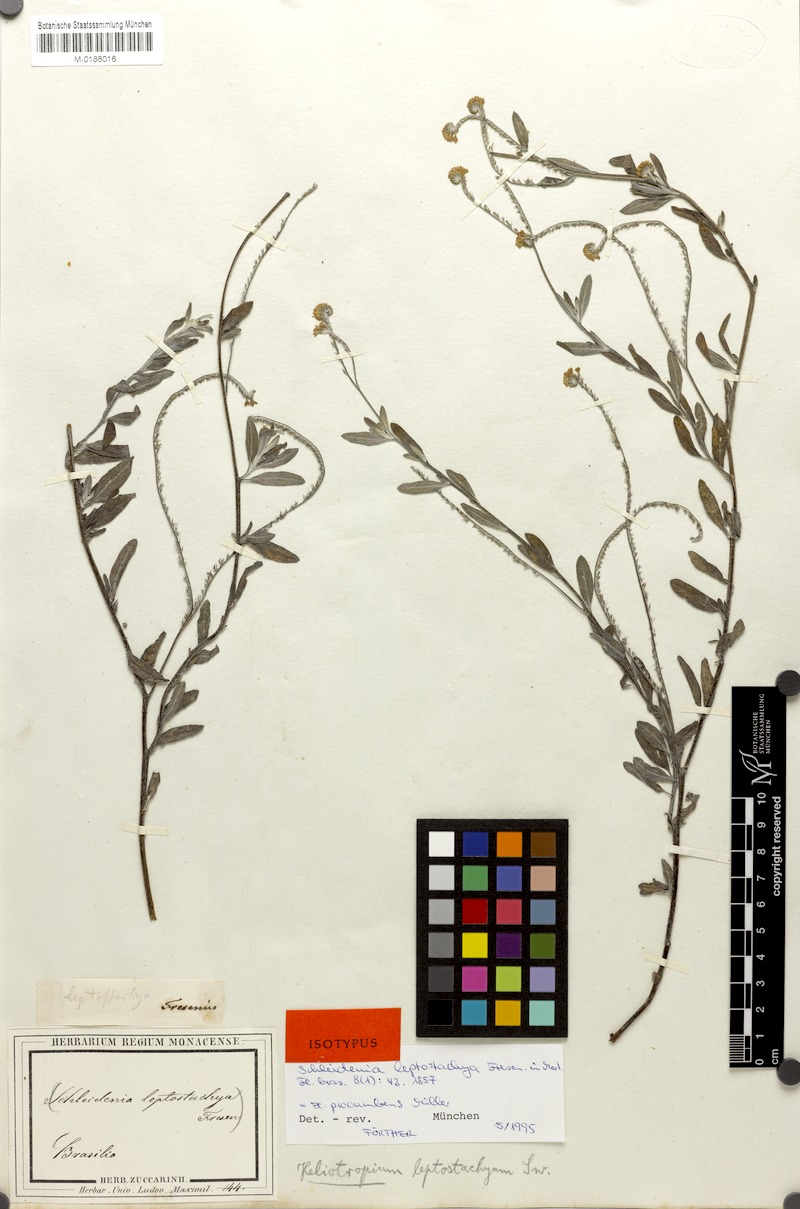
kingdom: Plantae
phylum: Tracheophyta
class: Magnoliopsida
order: Boraginales
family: Heliotropiaceae
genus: Euploca
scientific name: Euploca procumbens
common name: Fourspike heliotrope
